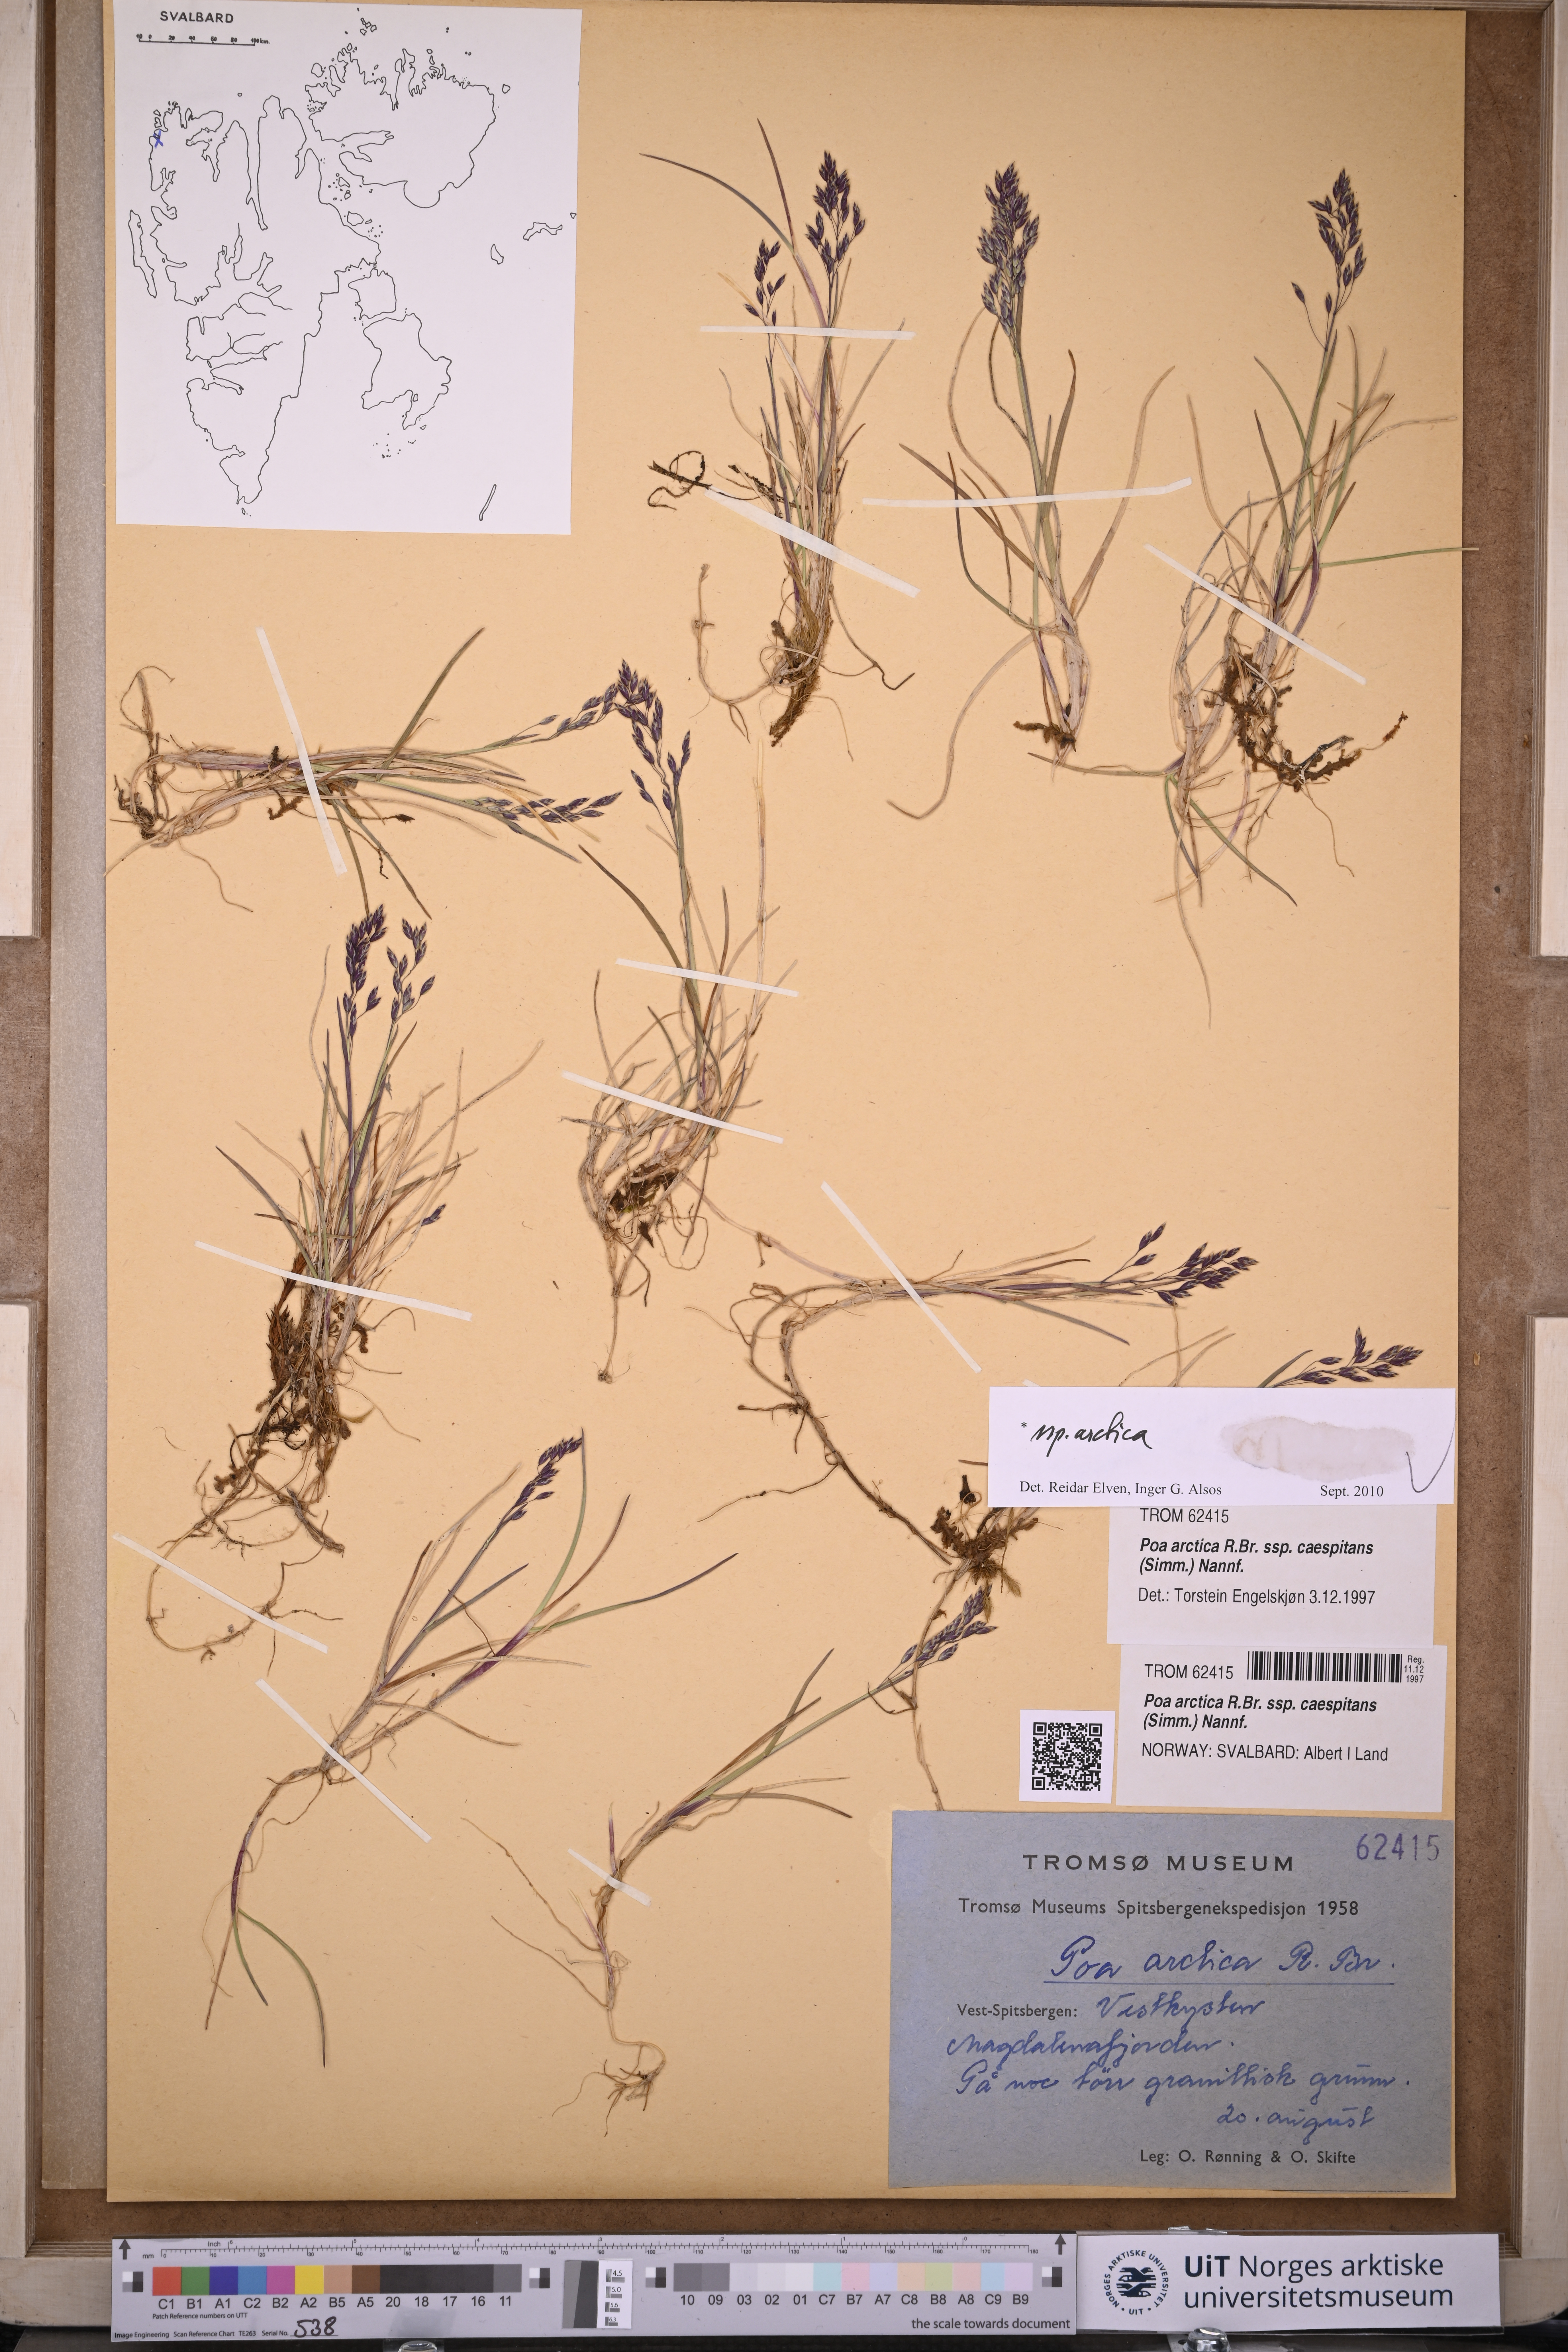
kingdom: Plantae
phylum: Tracheophyta
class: Liliopsida
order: Poales
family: Poaceae
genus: Poa
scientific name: Poa arctica
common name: Arctic bluegrass
